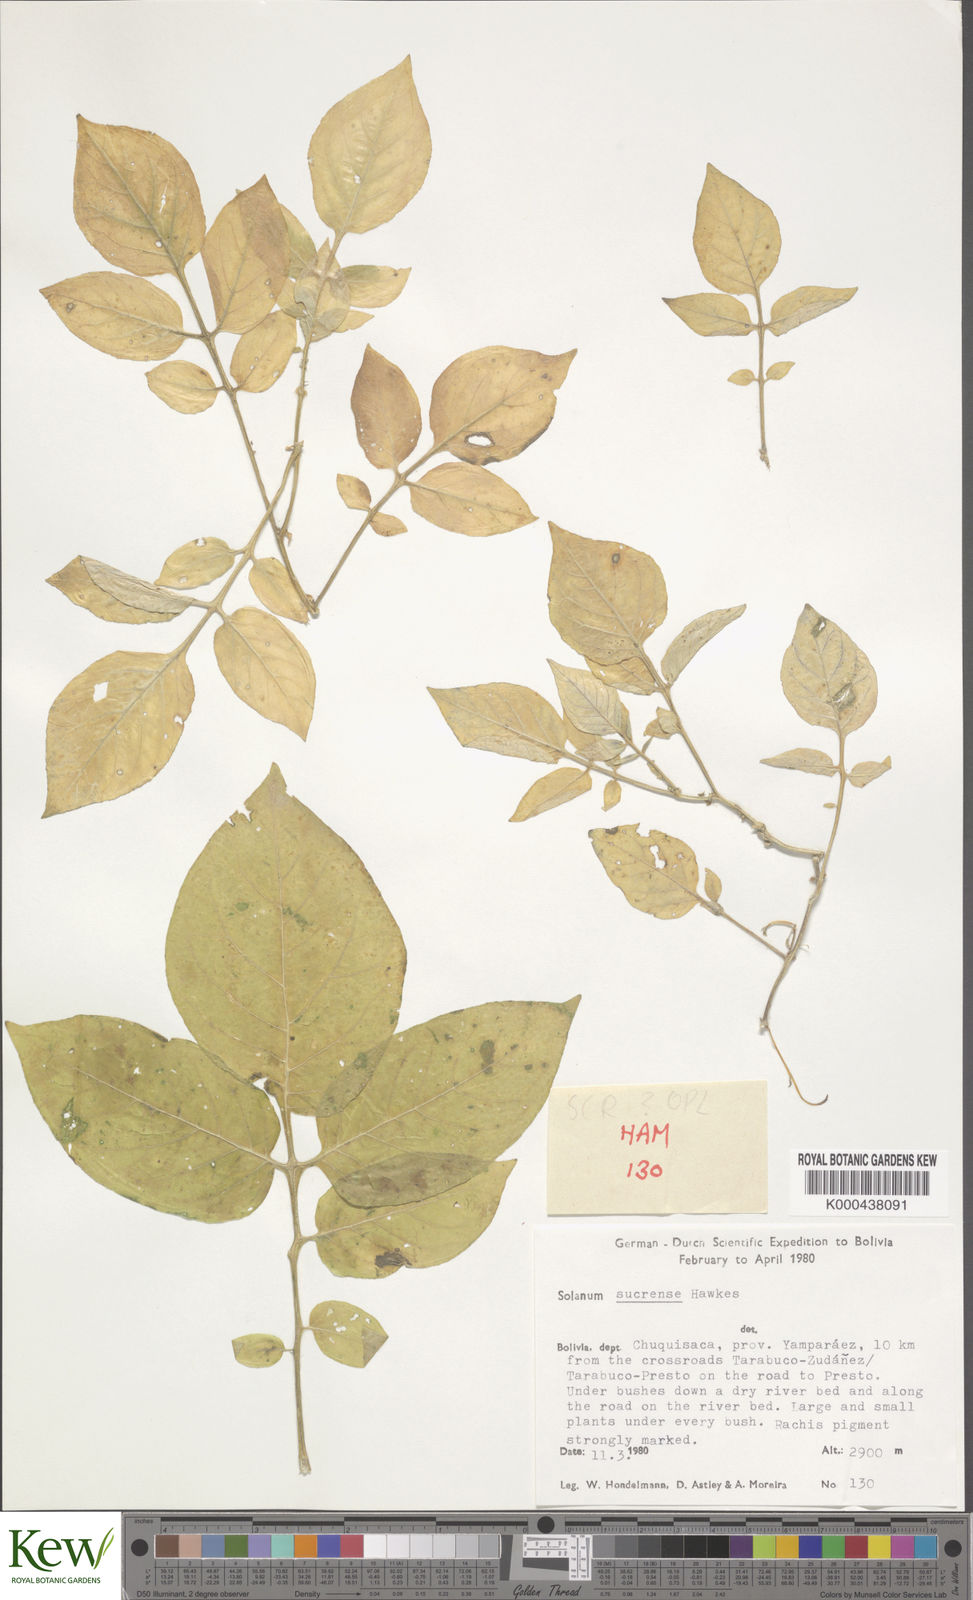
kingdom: Plantae
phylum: Tracheophyta
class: Magnoliopsida
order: Solanales
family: Solanaceae
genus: Solanum
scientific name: Solanum brevicaule
